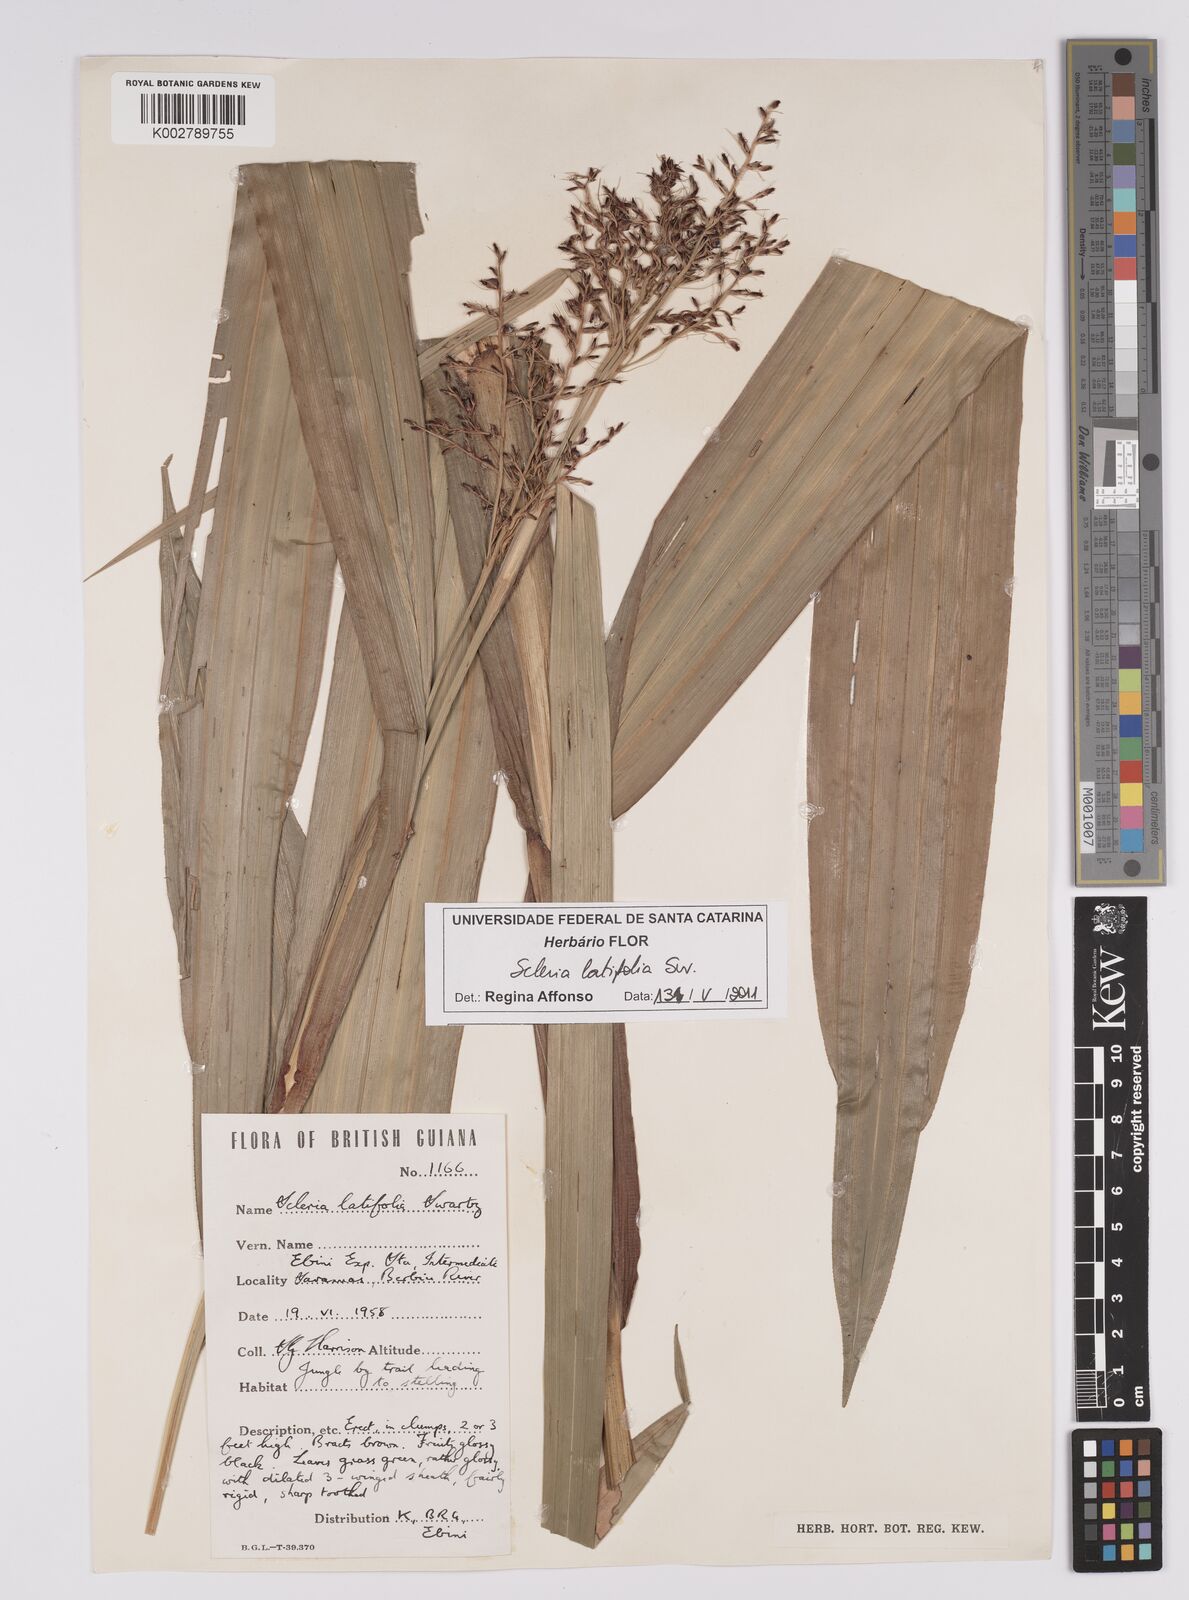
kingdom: Plantae
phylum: Tracheophyta
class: Liliopsida
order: Poales
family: Cyperaceae
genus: Scleria
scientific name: Scleria latifolia
